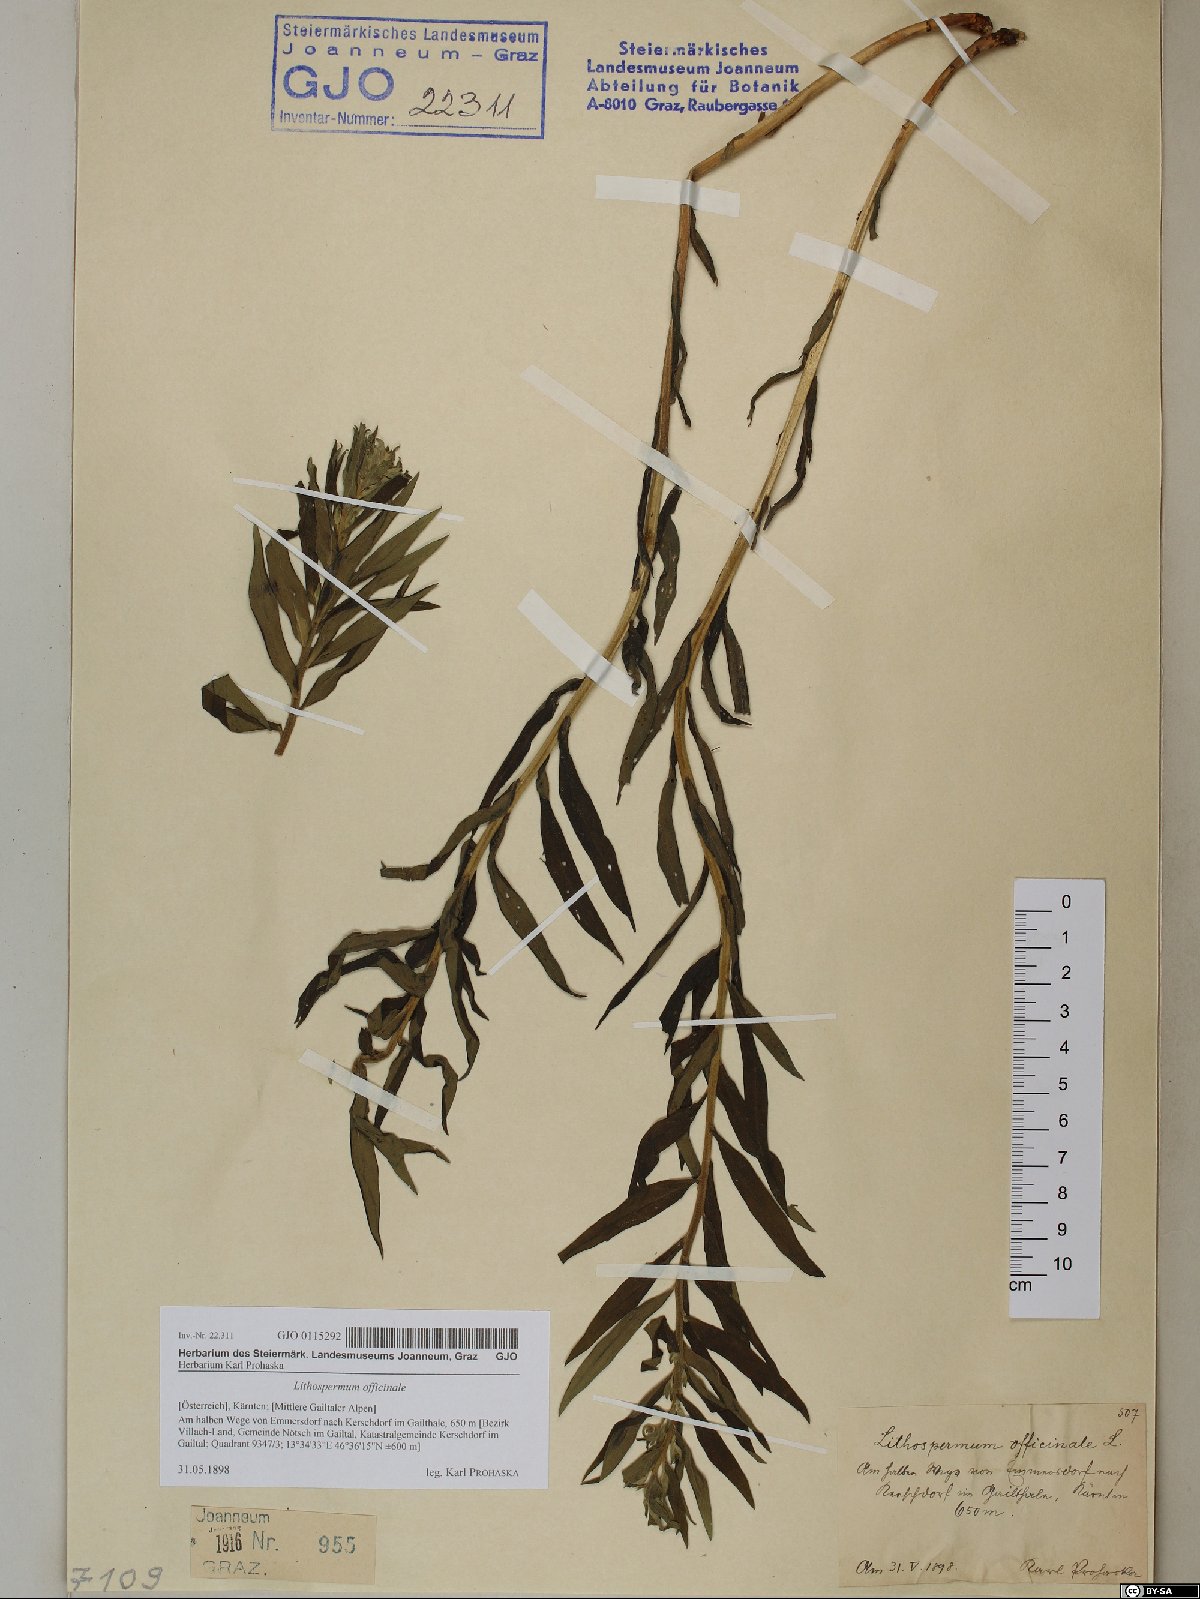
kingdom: Plantae
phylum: Tracheophyta
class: Magnoliopsida
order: Boraginales
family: Boraginaceae
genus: Lithospermum
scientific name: Lithospermum officinale
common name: Common gromwell
